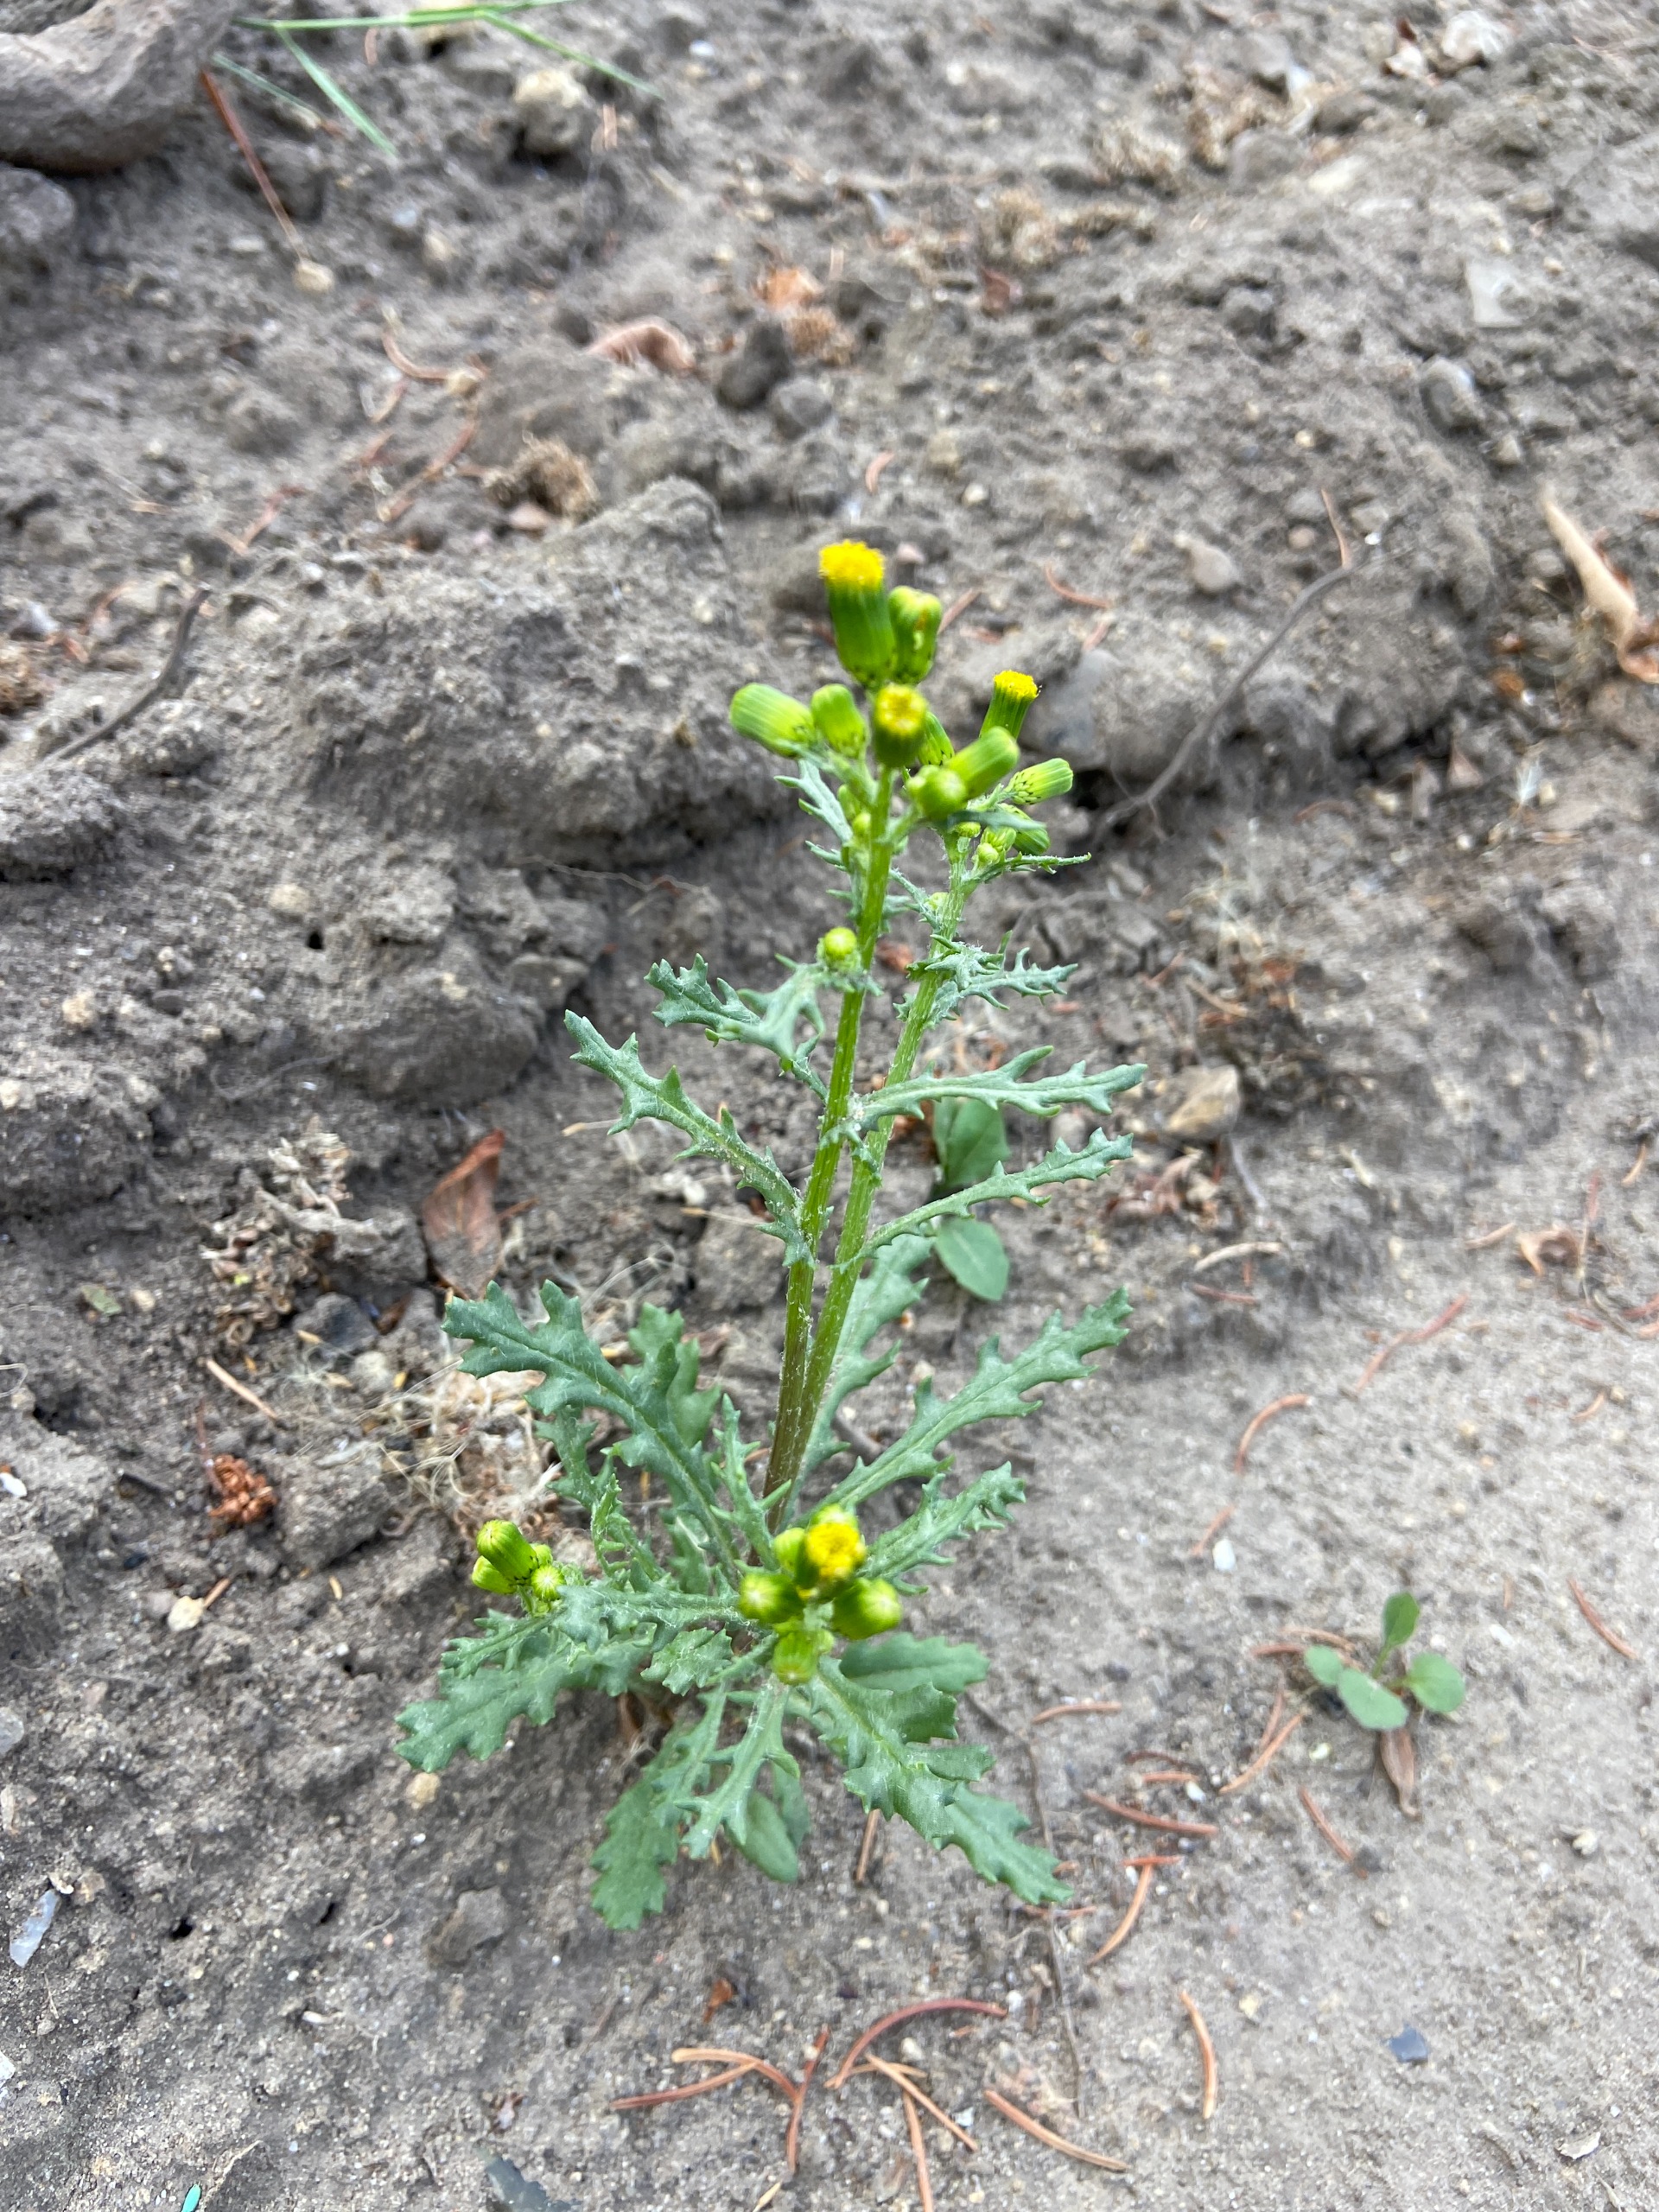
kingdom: Plantae
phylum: Tracheophyta
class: Magnoliopsida
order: Asterales
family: Asteraceae
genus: Senecio
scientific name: Senecio vulgaris
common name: Almindelig brandbæger
